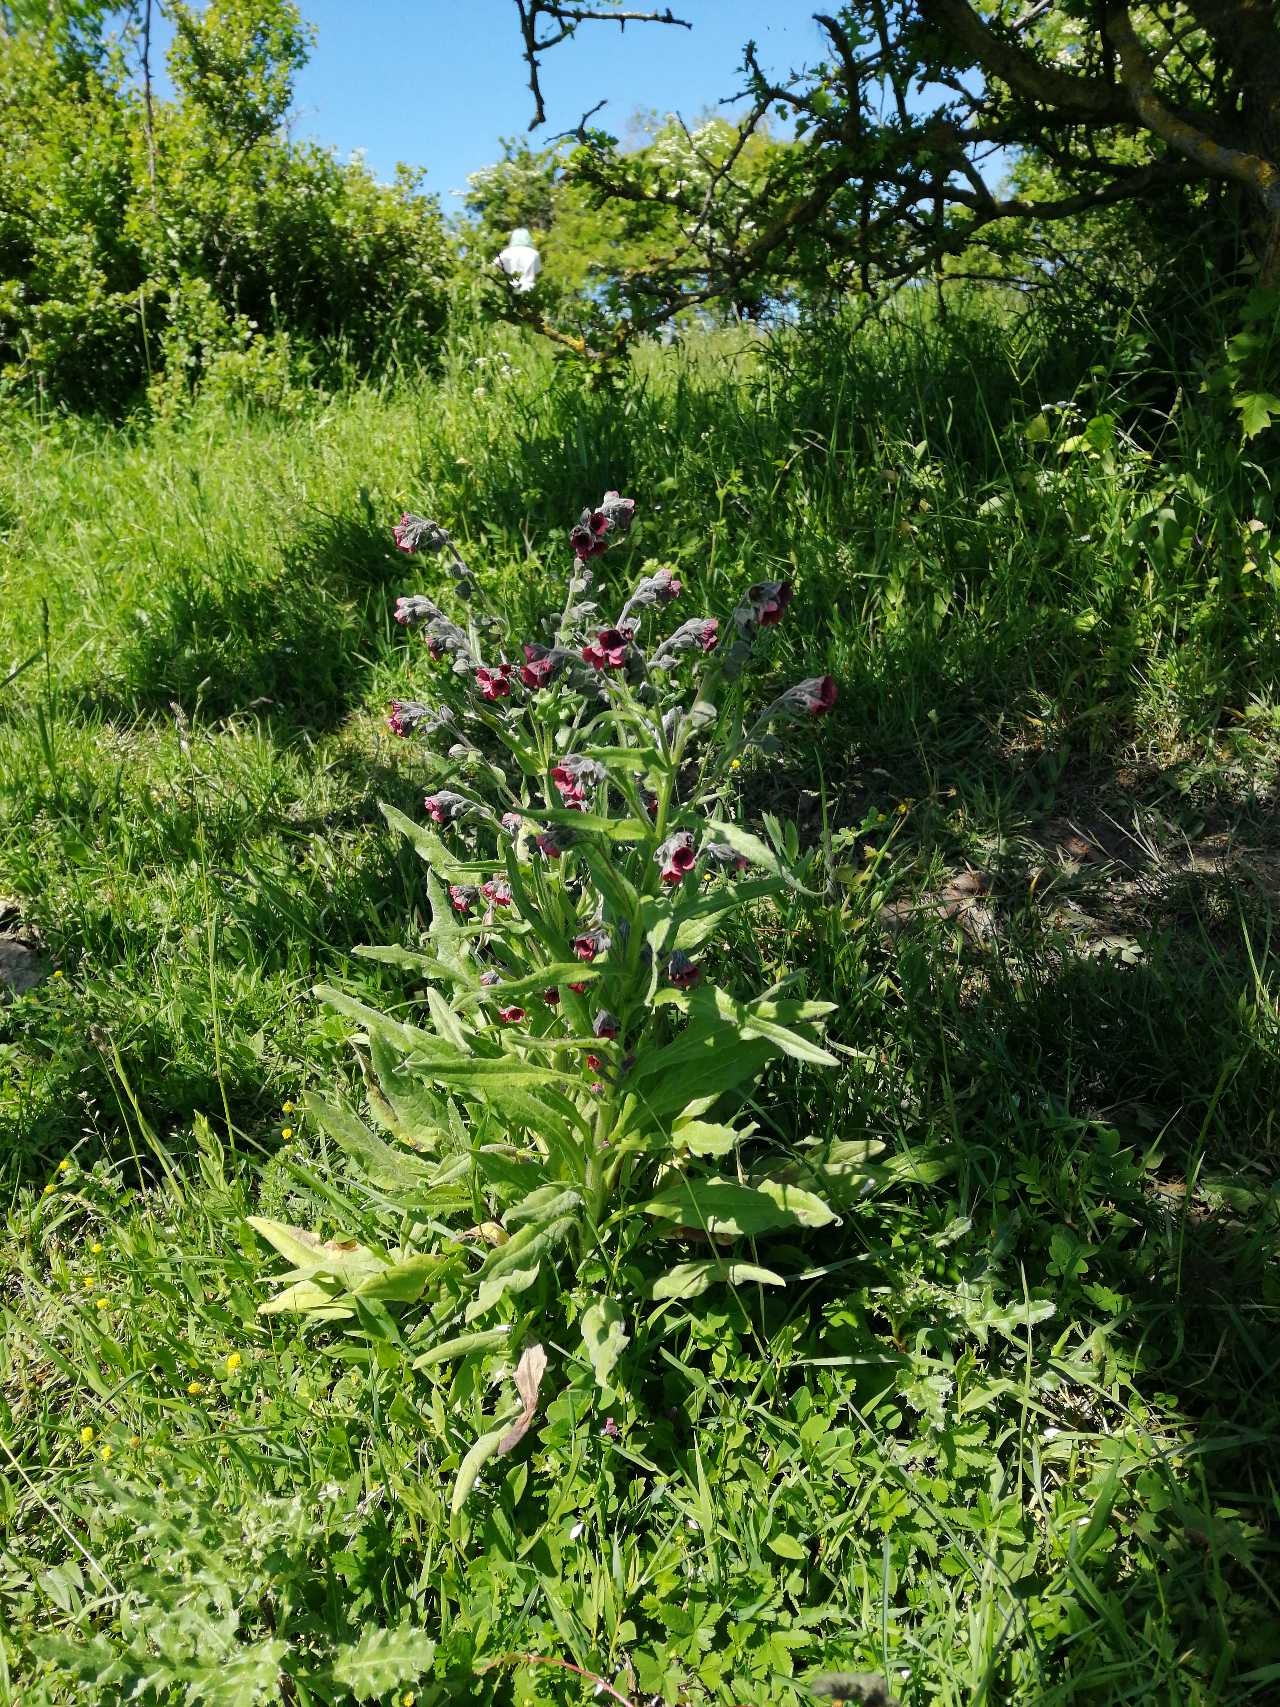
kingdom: Plantae
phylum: Tracheophyta
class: Magnoliopsida
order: Boraginales
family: Boraginaceae
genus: Cynoglossum
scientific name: Cynoglossum officinale
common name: Hundetunge
